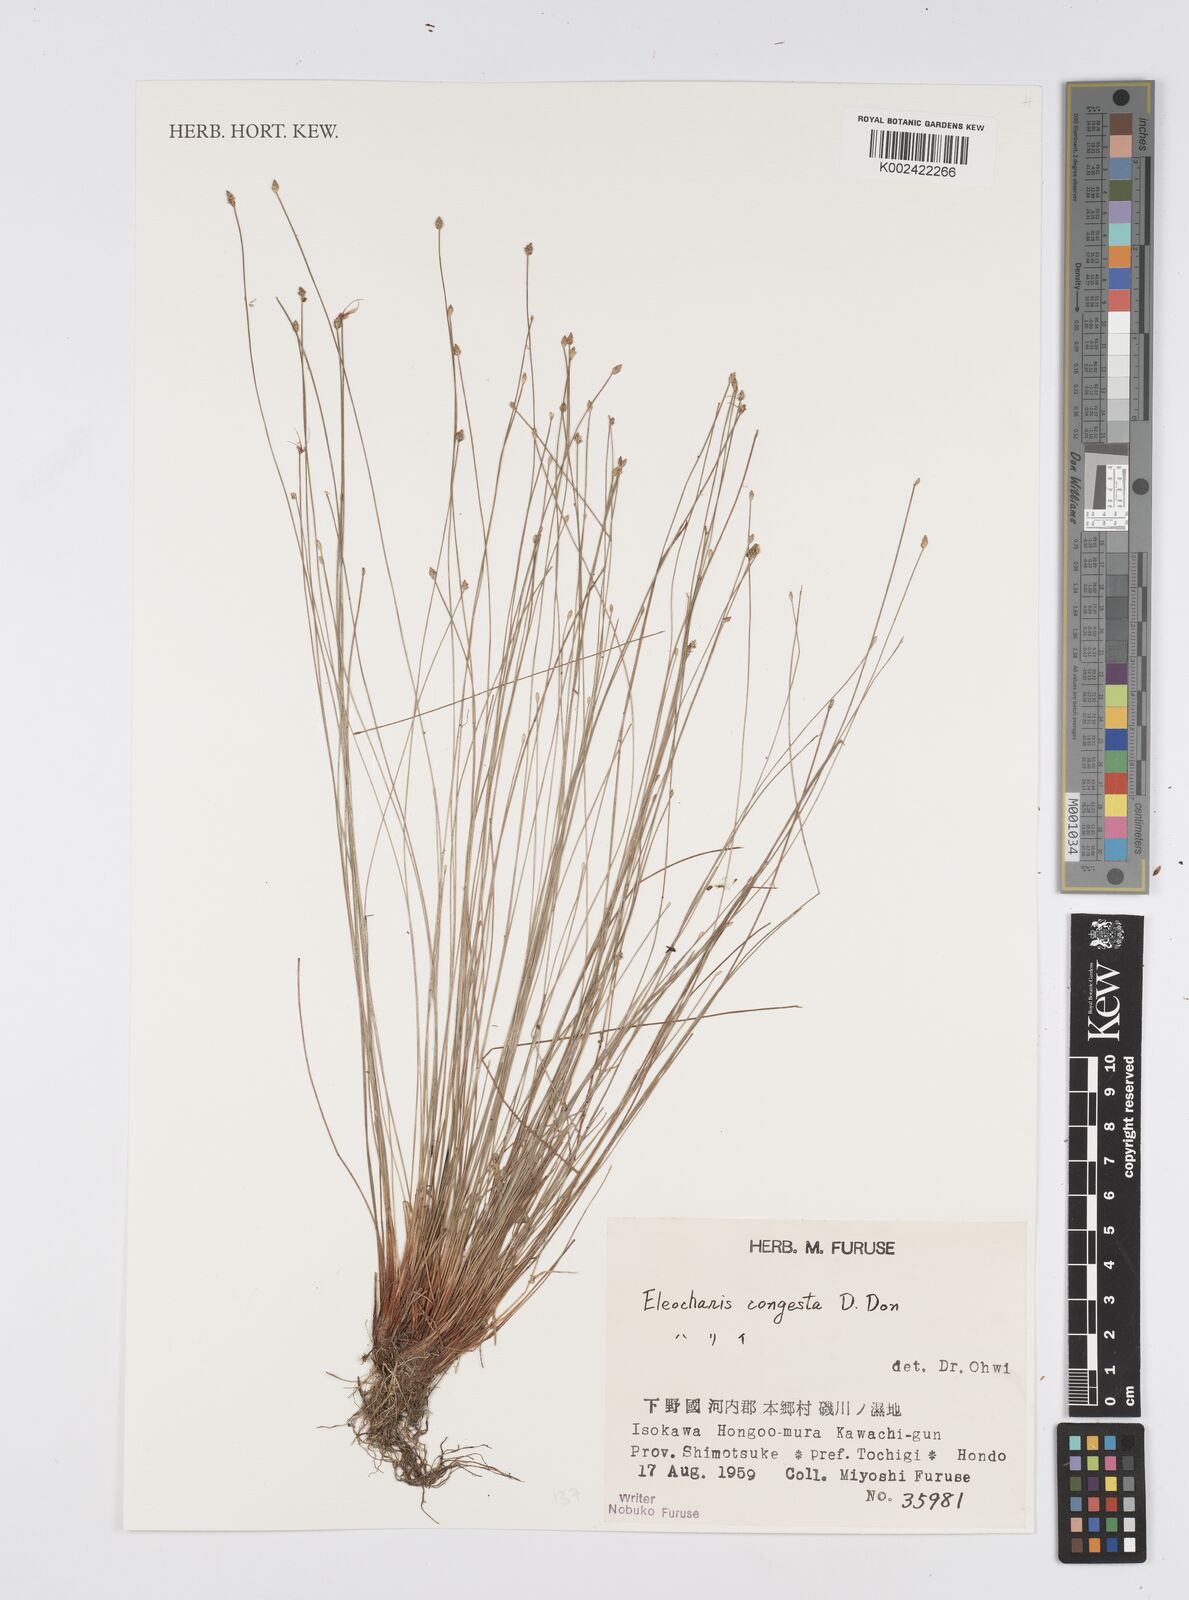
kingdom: Plantae
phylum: Tracheophyta
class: Liliopsida
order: Poales
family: Cyperaceae
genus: Eleocharis
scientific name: Eleocharis congesta
